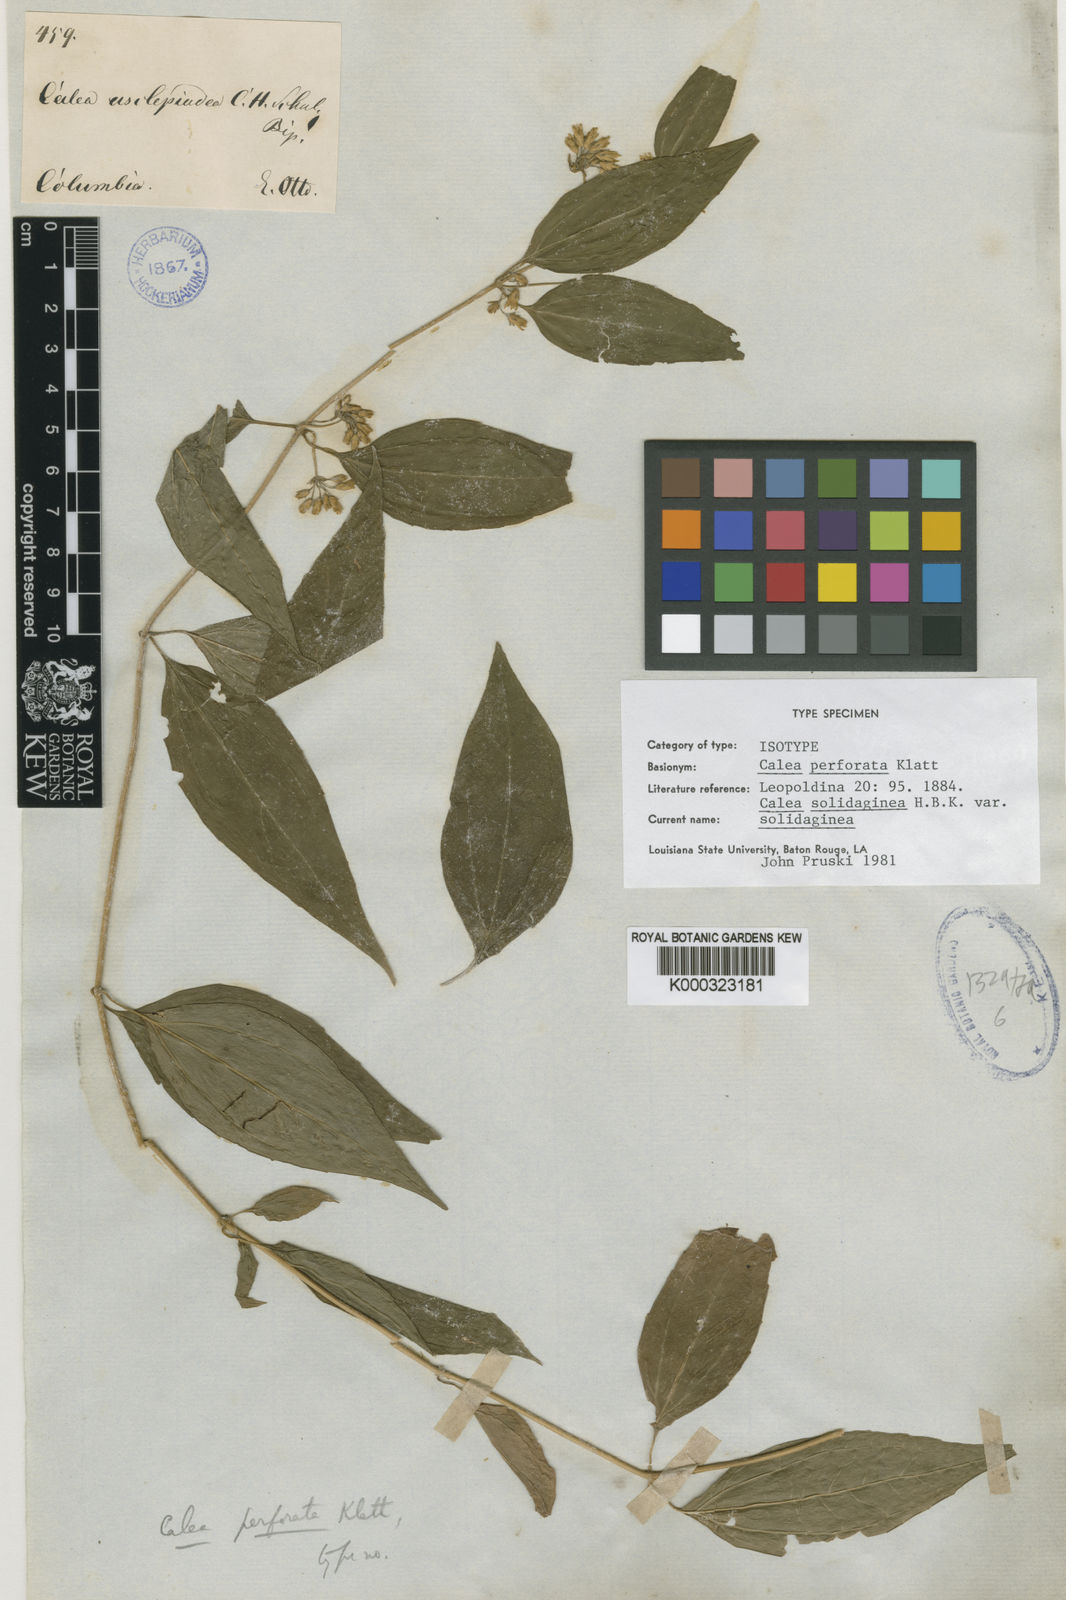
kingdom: Plantae
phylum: Tracheophyta
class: Magnoliopsida
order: Asterales
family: Asteraceae
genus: Calea
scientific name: Calea solidaginea
